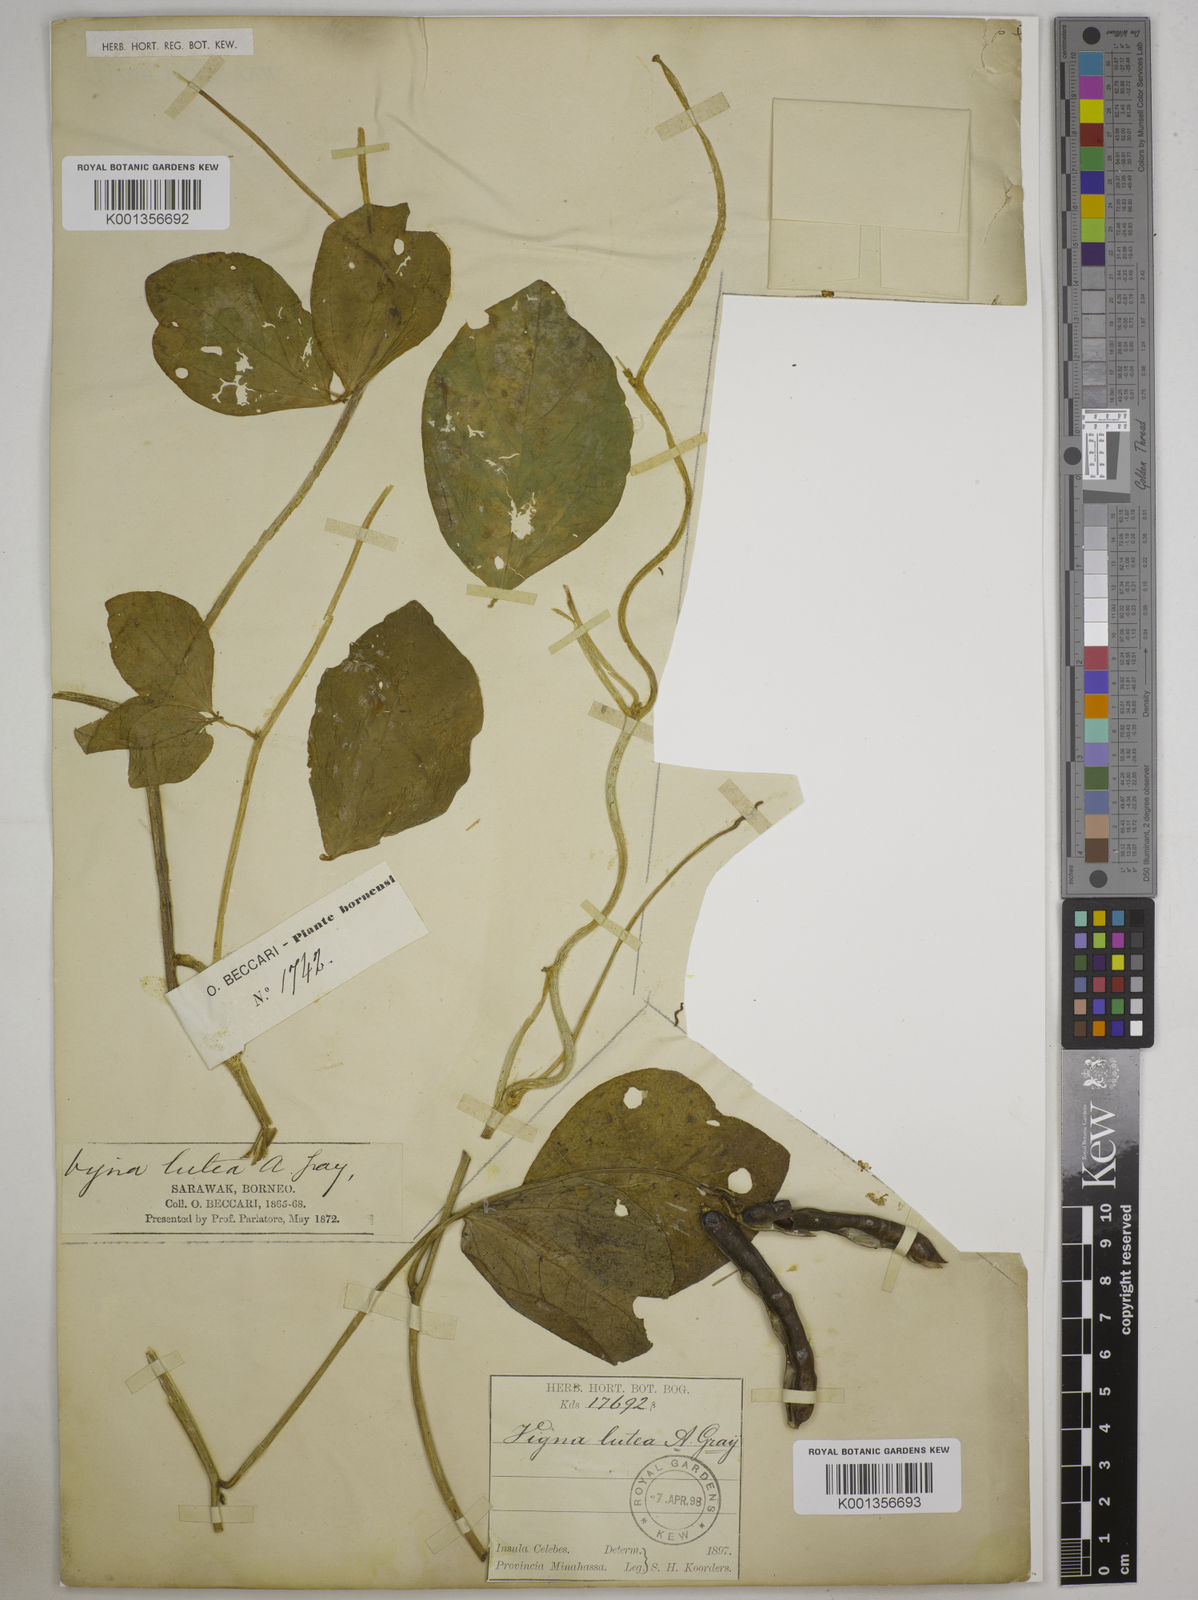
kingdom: Plantae
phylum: Tracheophyta
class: Magnoliopsida
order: Fabales
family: Fabaceae
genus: Vigna
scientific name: Vigna marina
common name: Dune-bean
